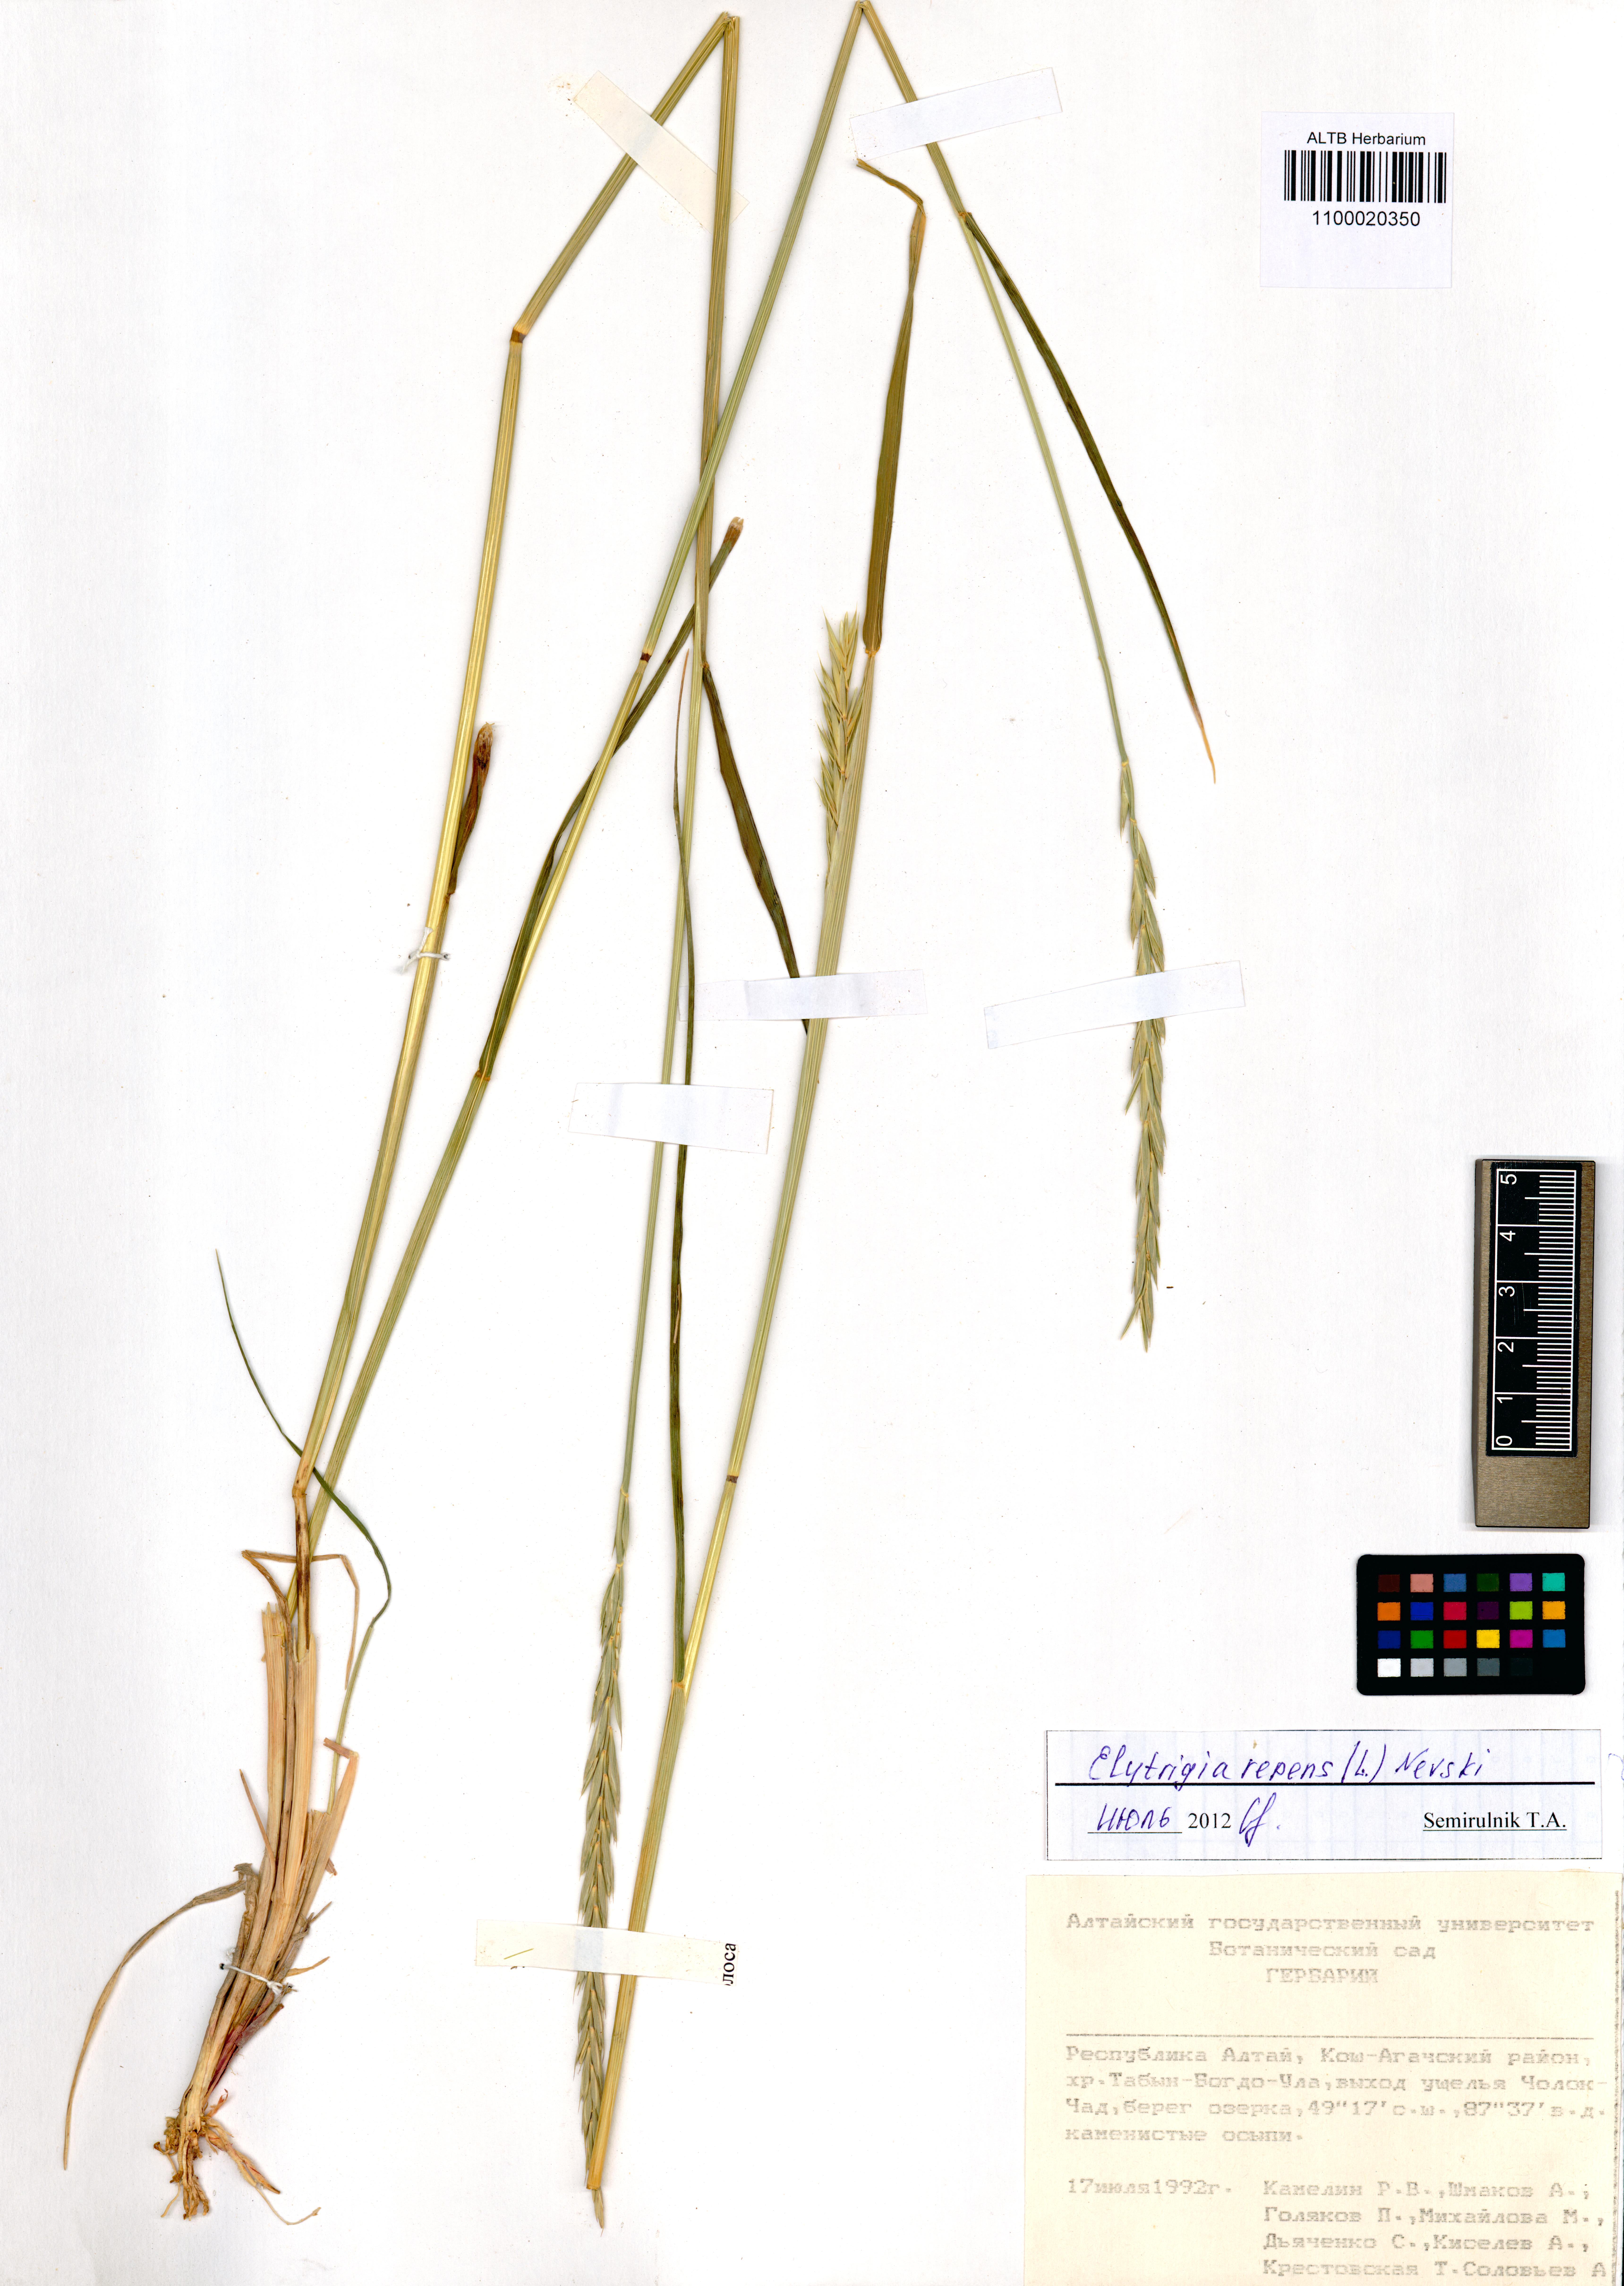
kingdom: Plantae
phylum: Tracheophyta
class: Liliopsida
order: Poales
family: Poaceae
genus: Elymus
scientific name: Elymus repens
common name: Quackgrass
